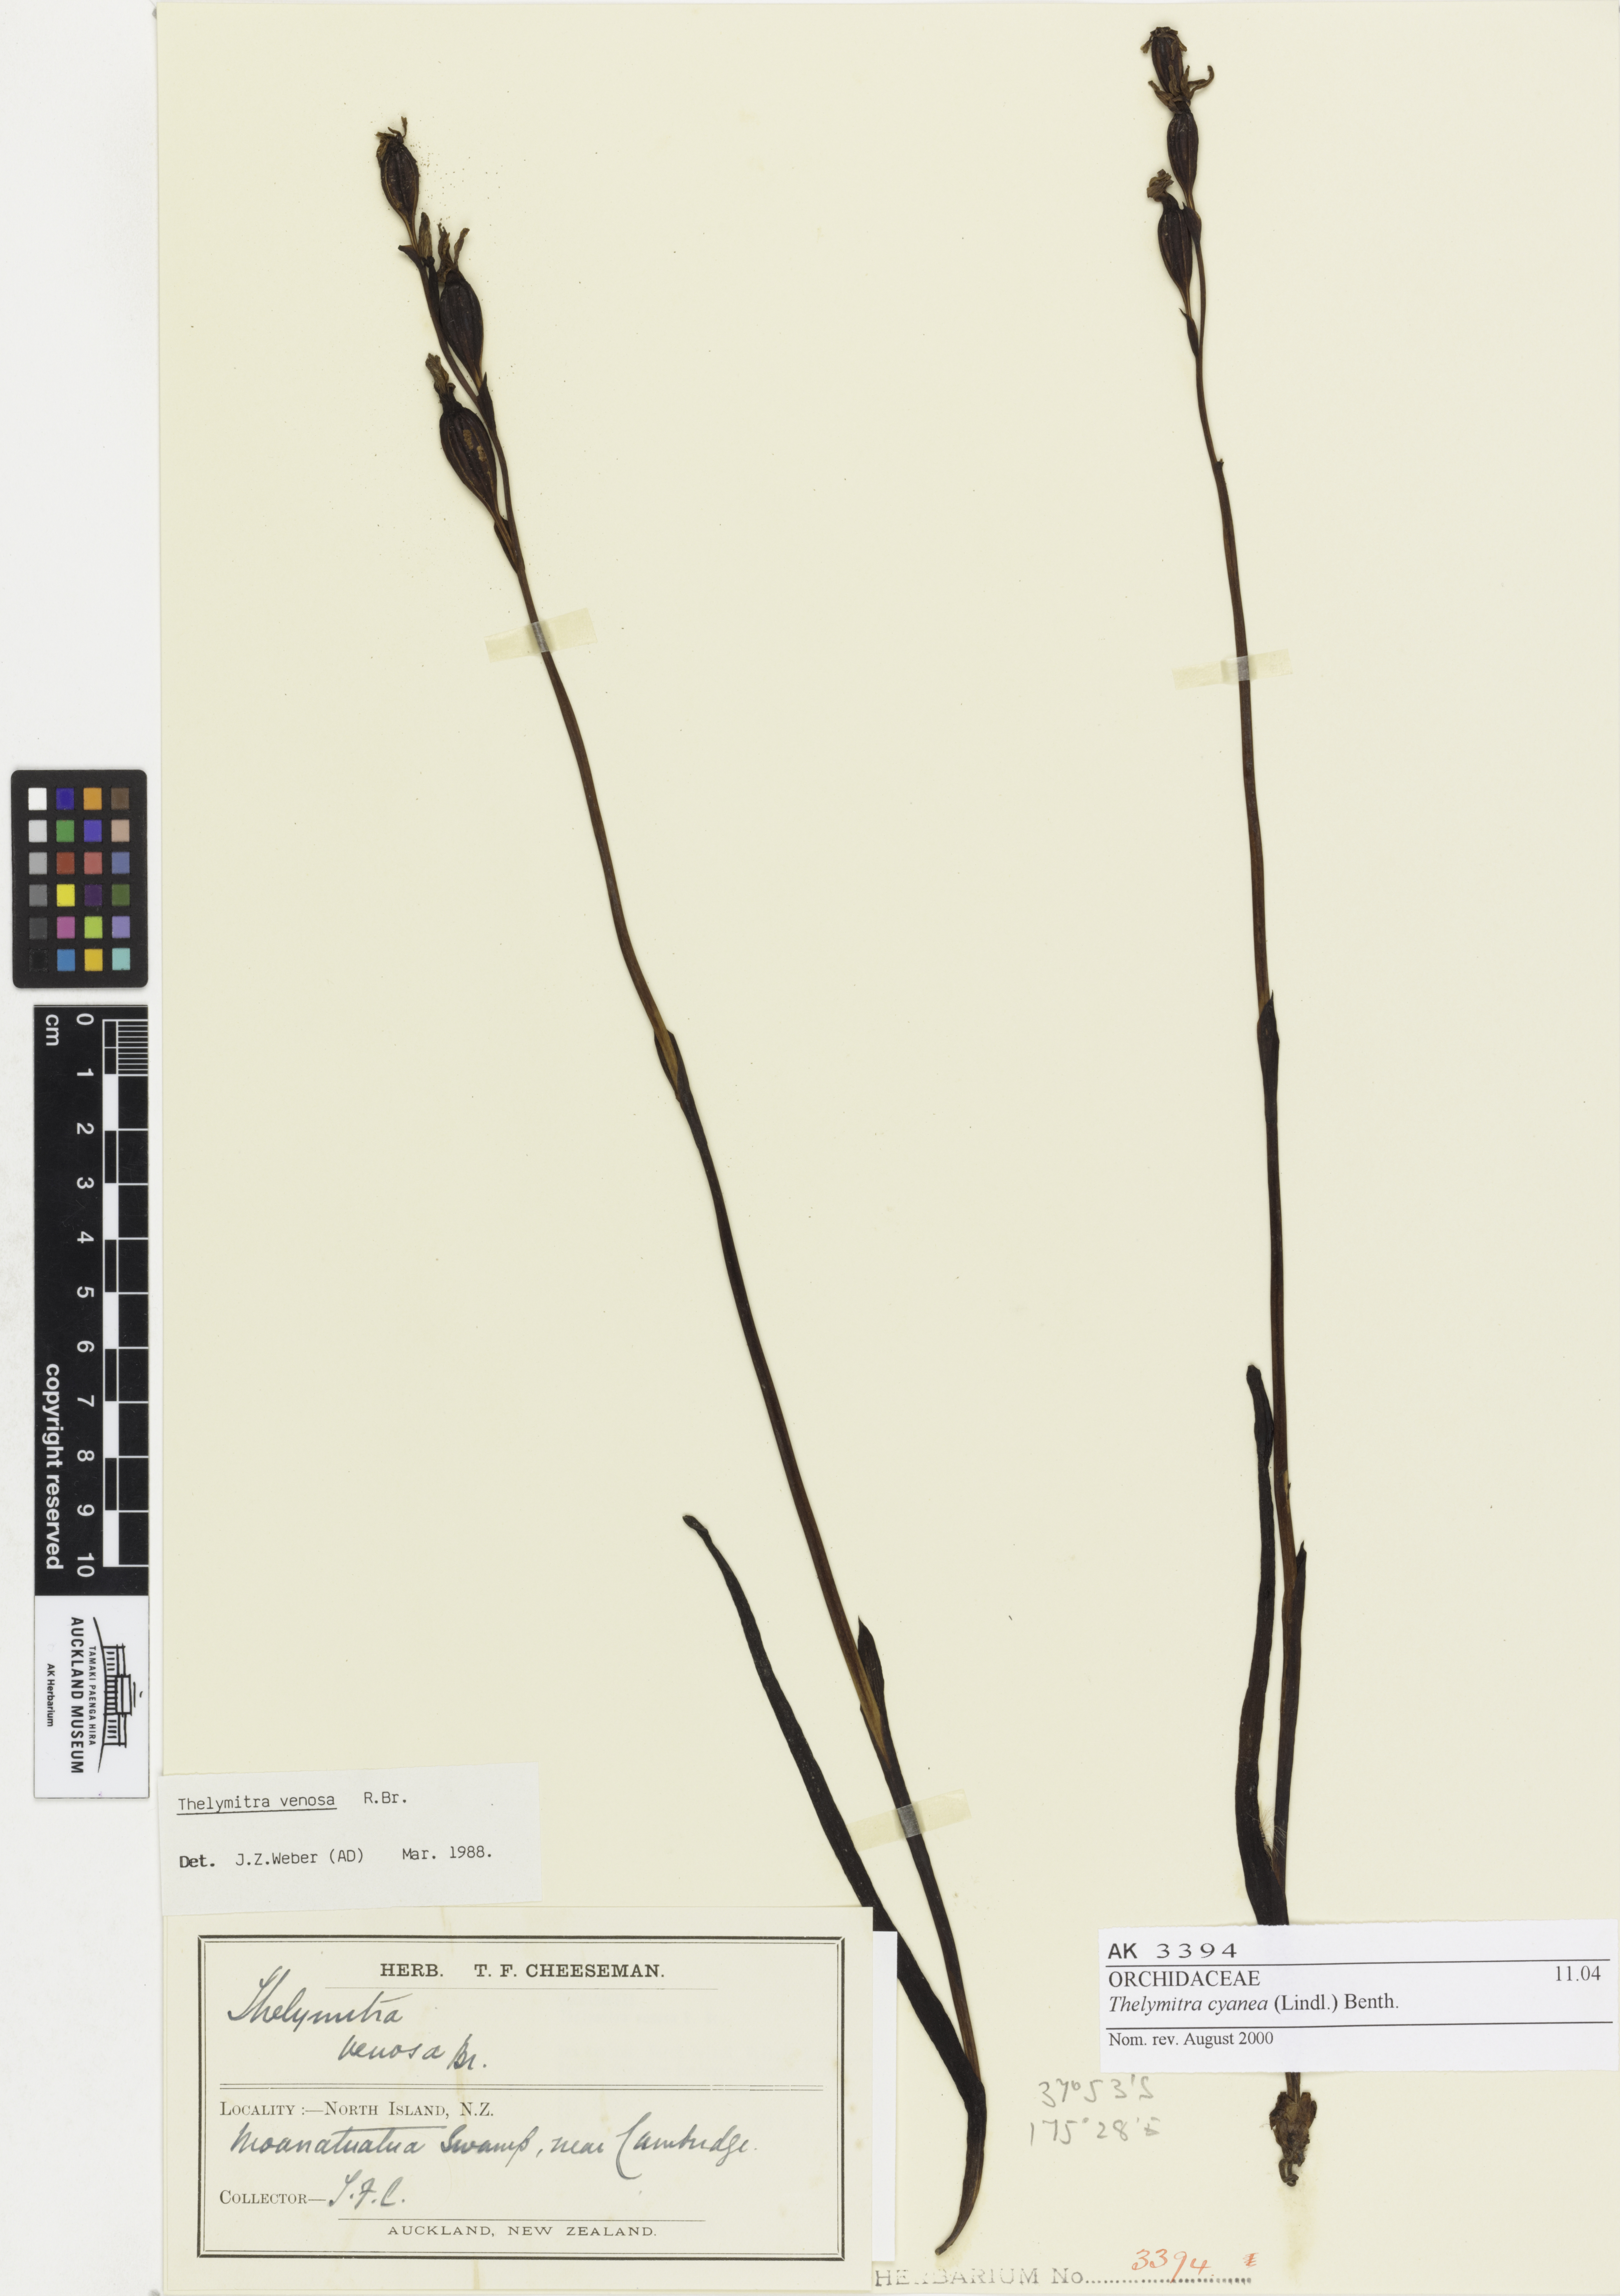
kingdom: Plantae
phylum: Tracheophyta
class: Liliopsida
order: Asparagales
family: Orchidaceae
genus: Thelymitra
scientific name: Thelymitra cyanea
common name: Blue sun-orchid
